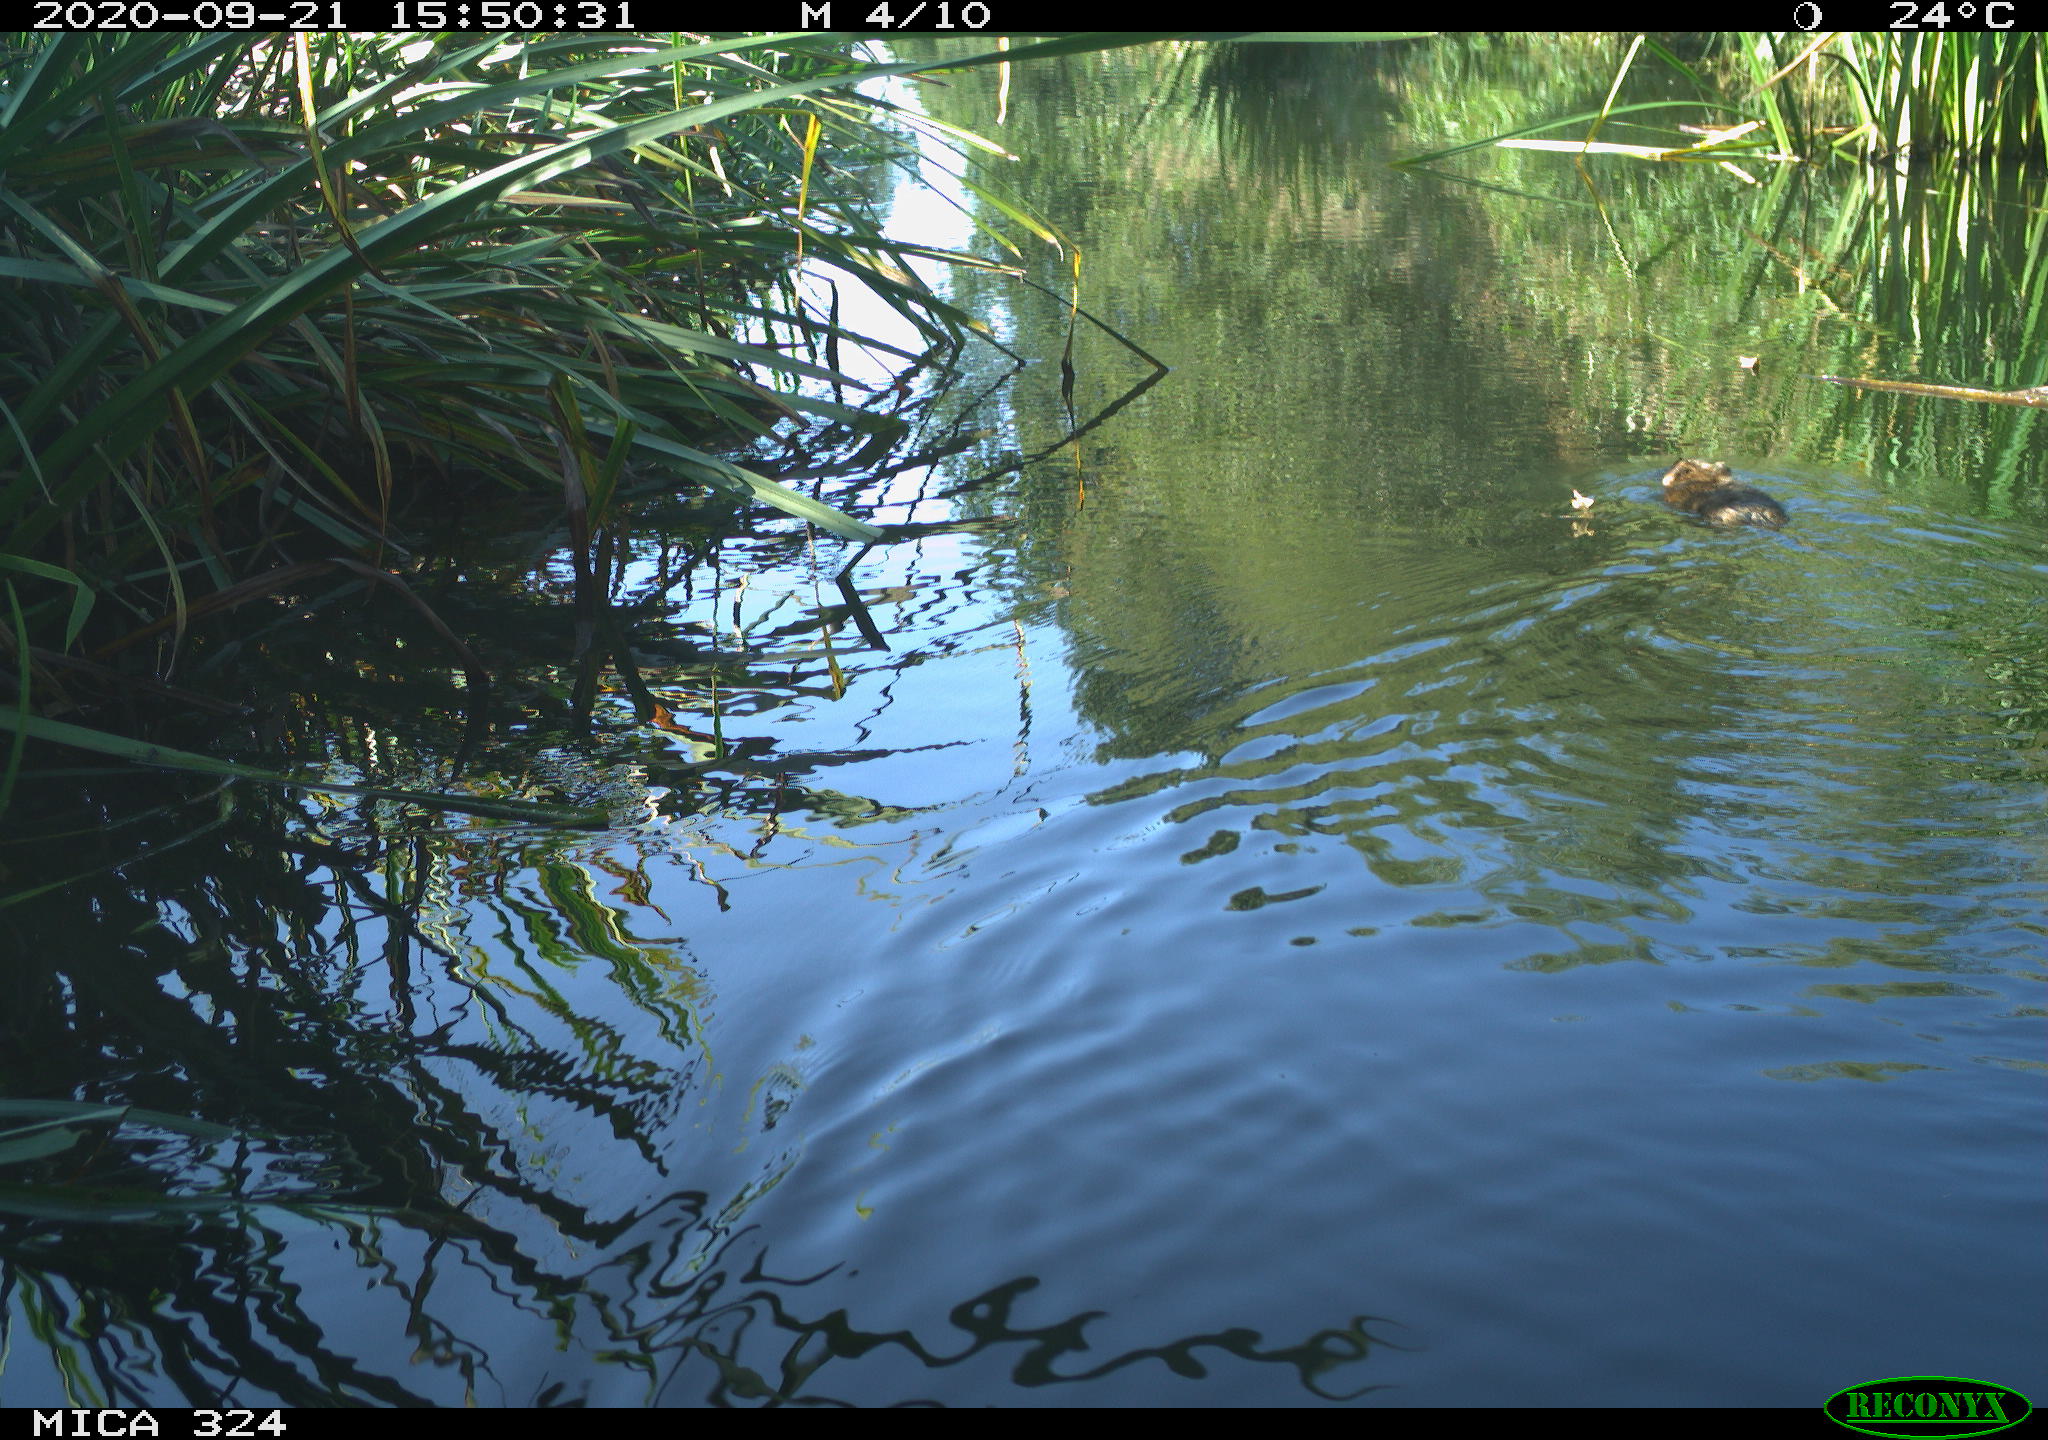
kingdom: Animalia
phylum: Chordata
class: Mammalia
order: Rodentia
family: Cricetidae
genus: Ondatra
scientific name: Ondatra zibethicus
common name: Muskrat
